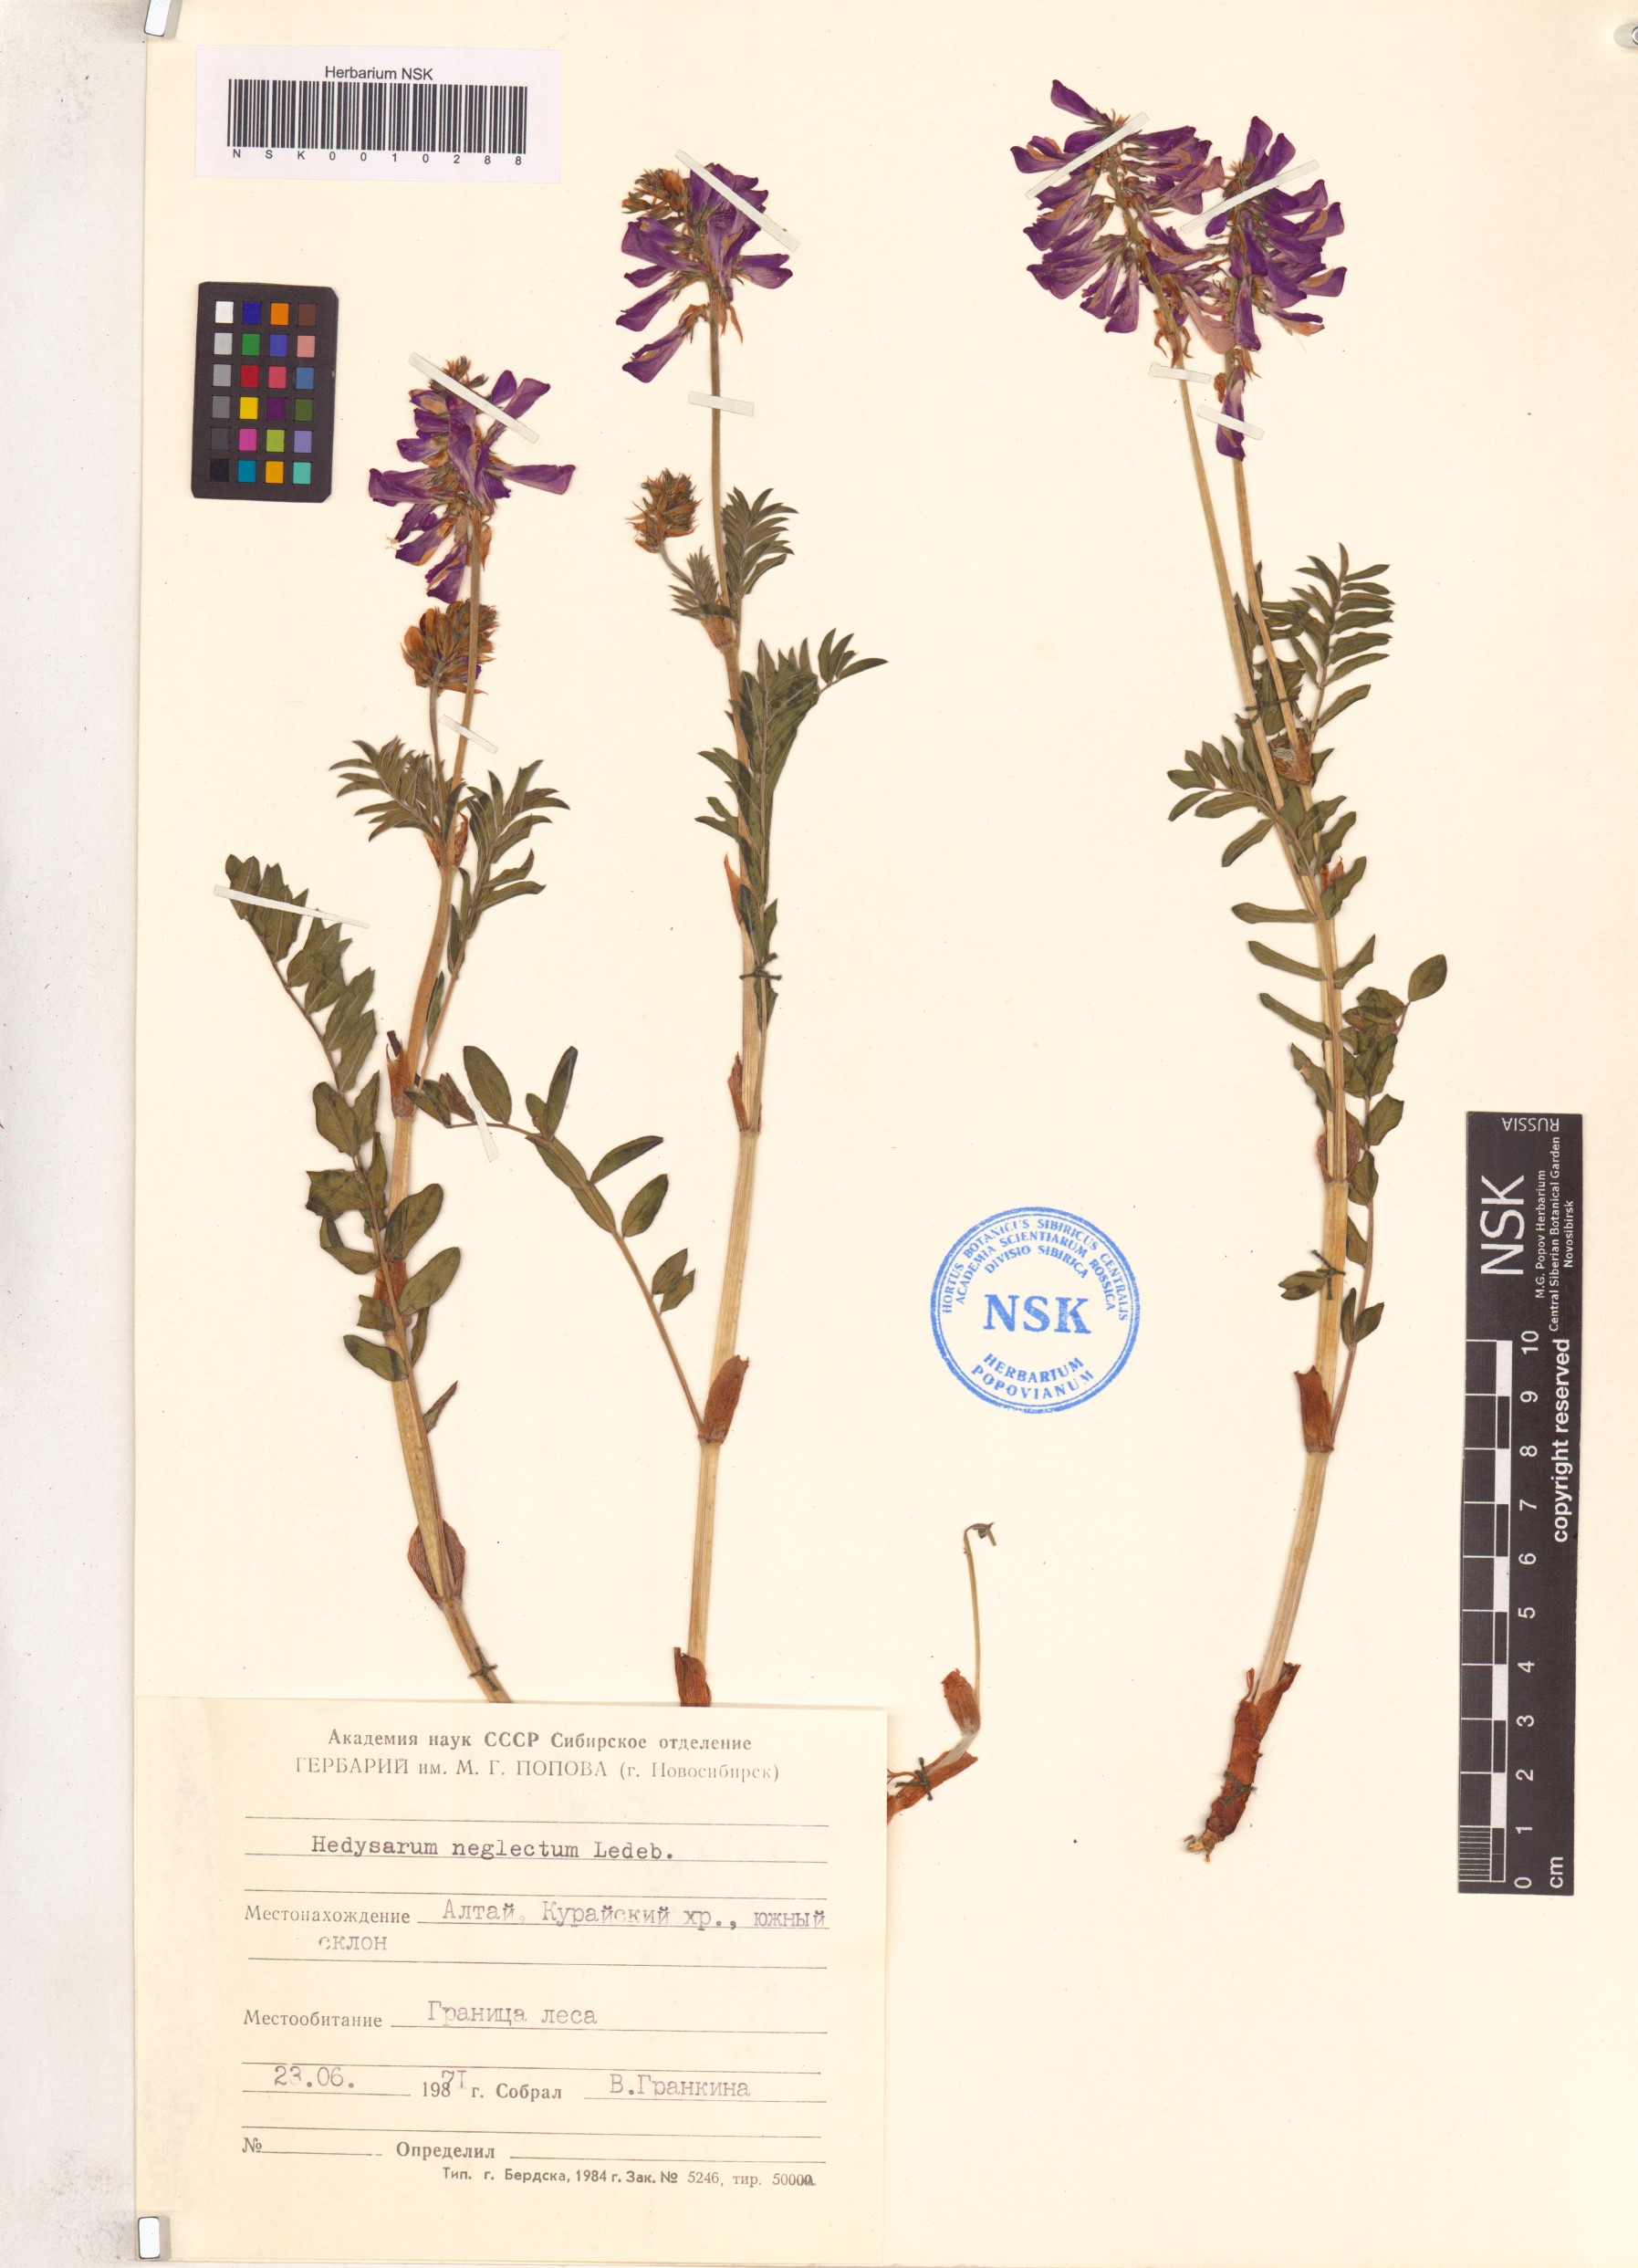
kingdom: Plantae
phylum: Tracheophyta
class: Magnoliopsida
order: Fabales
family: Fabaceae
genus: Hedysarum
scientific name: Hedysarum neglectum
